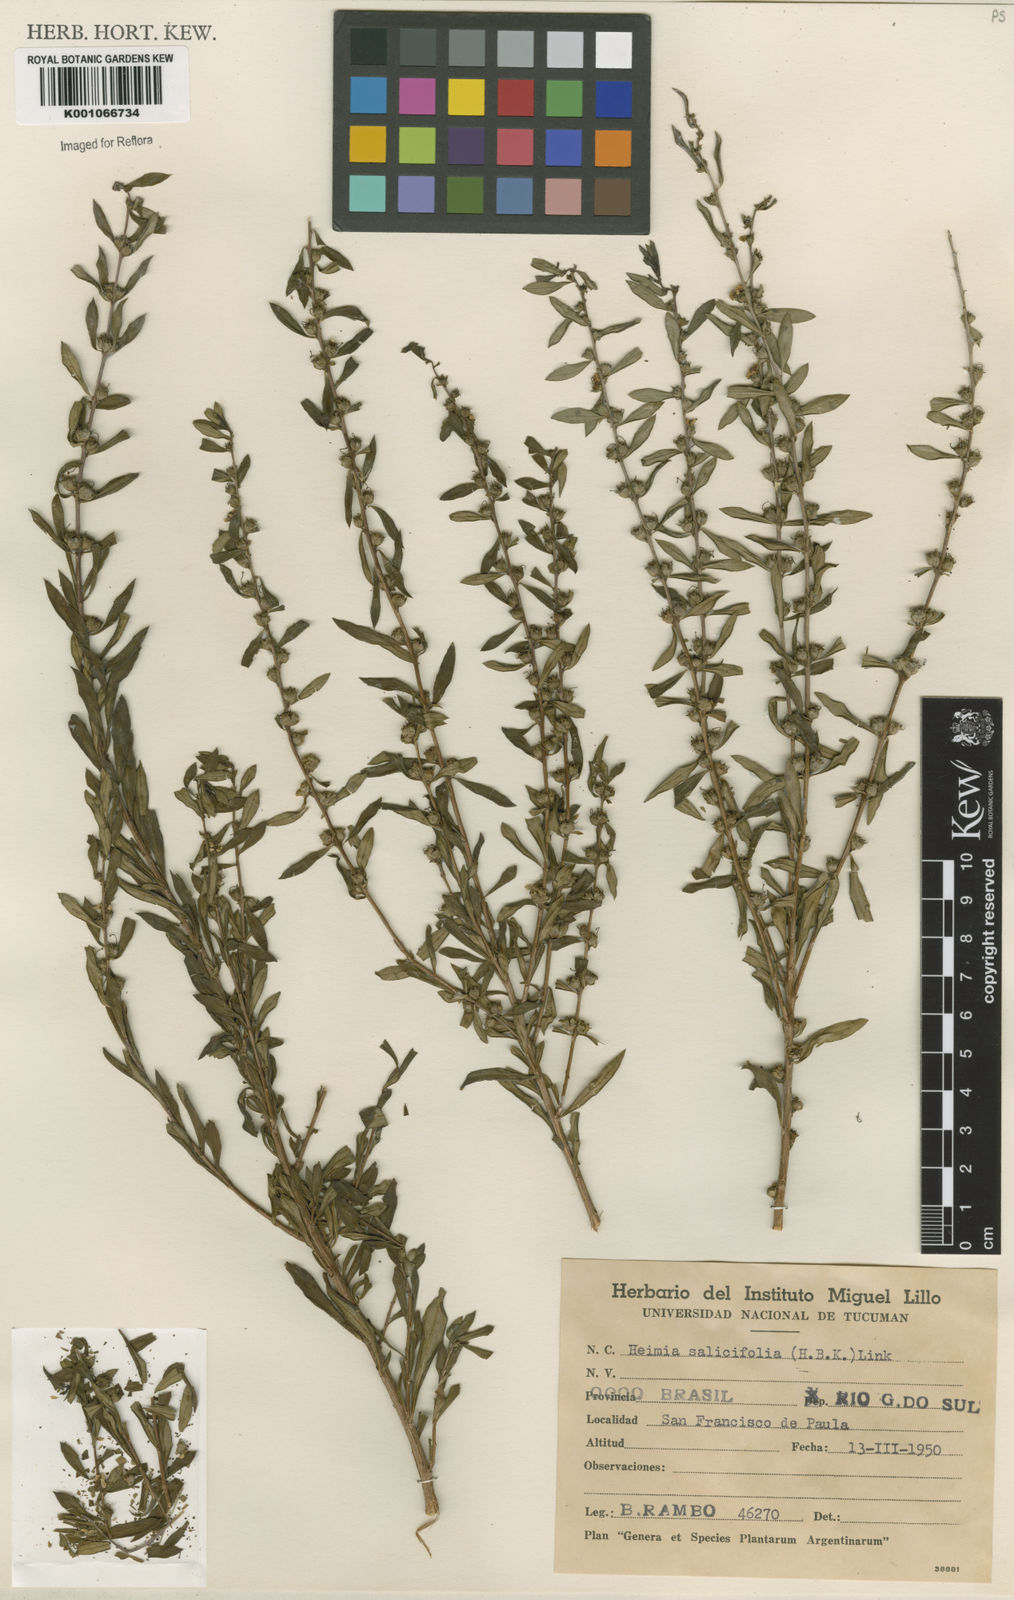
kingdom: Plantae
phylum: Tracheophyta
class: Magnoliopsida
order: Myrtales
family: Lythraceae
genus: Heimia
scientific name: Heimia salicifolia
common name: Willow-leaf heimia
